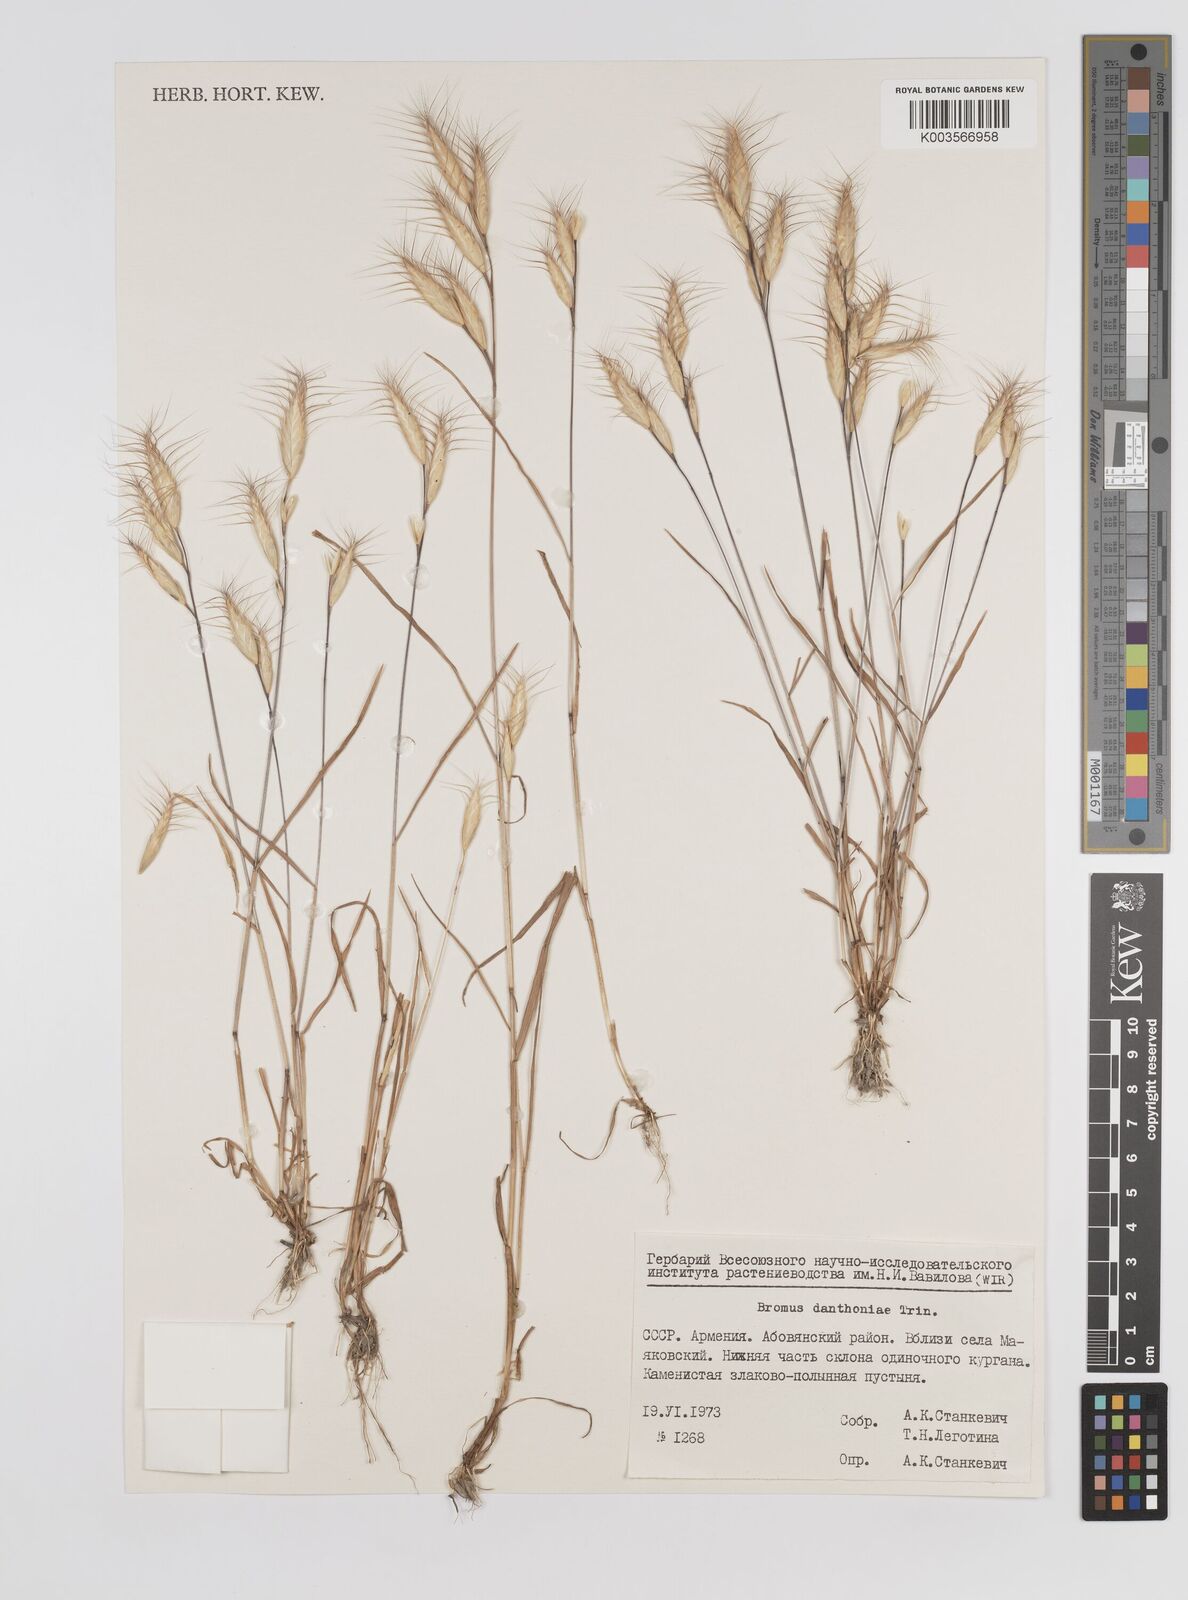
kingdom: Plantae
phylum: Tracheophyta
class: Liliopsida
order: Poales
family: Poaceae
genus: Bromus
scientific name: Bromus danthoniae
